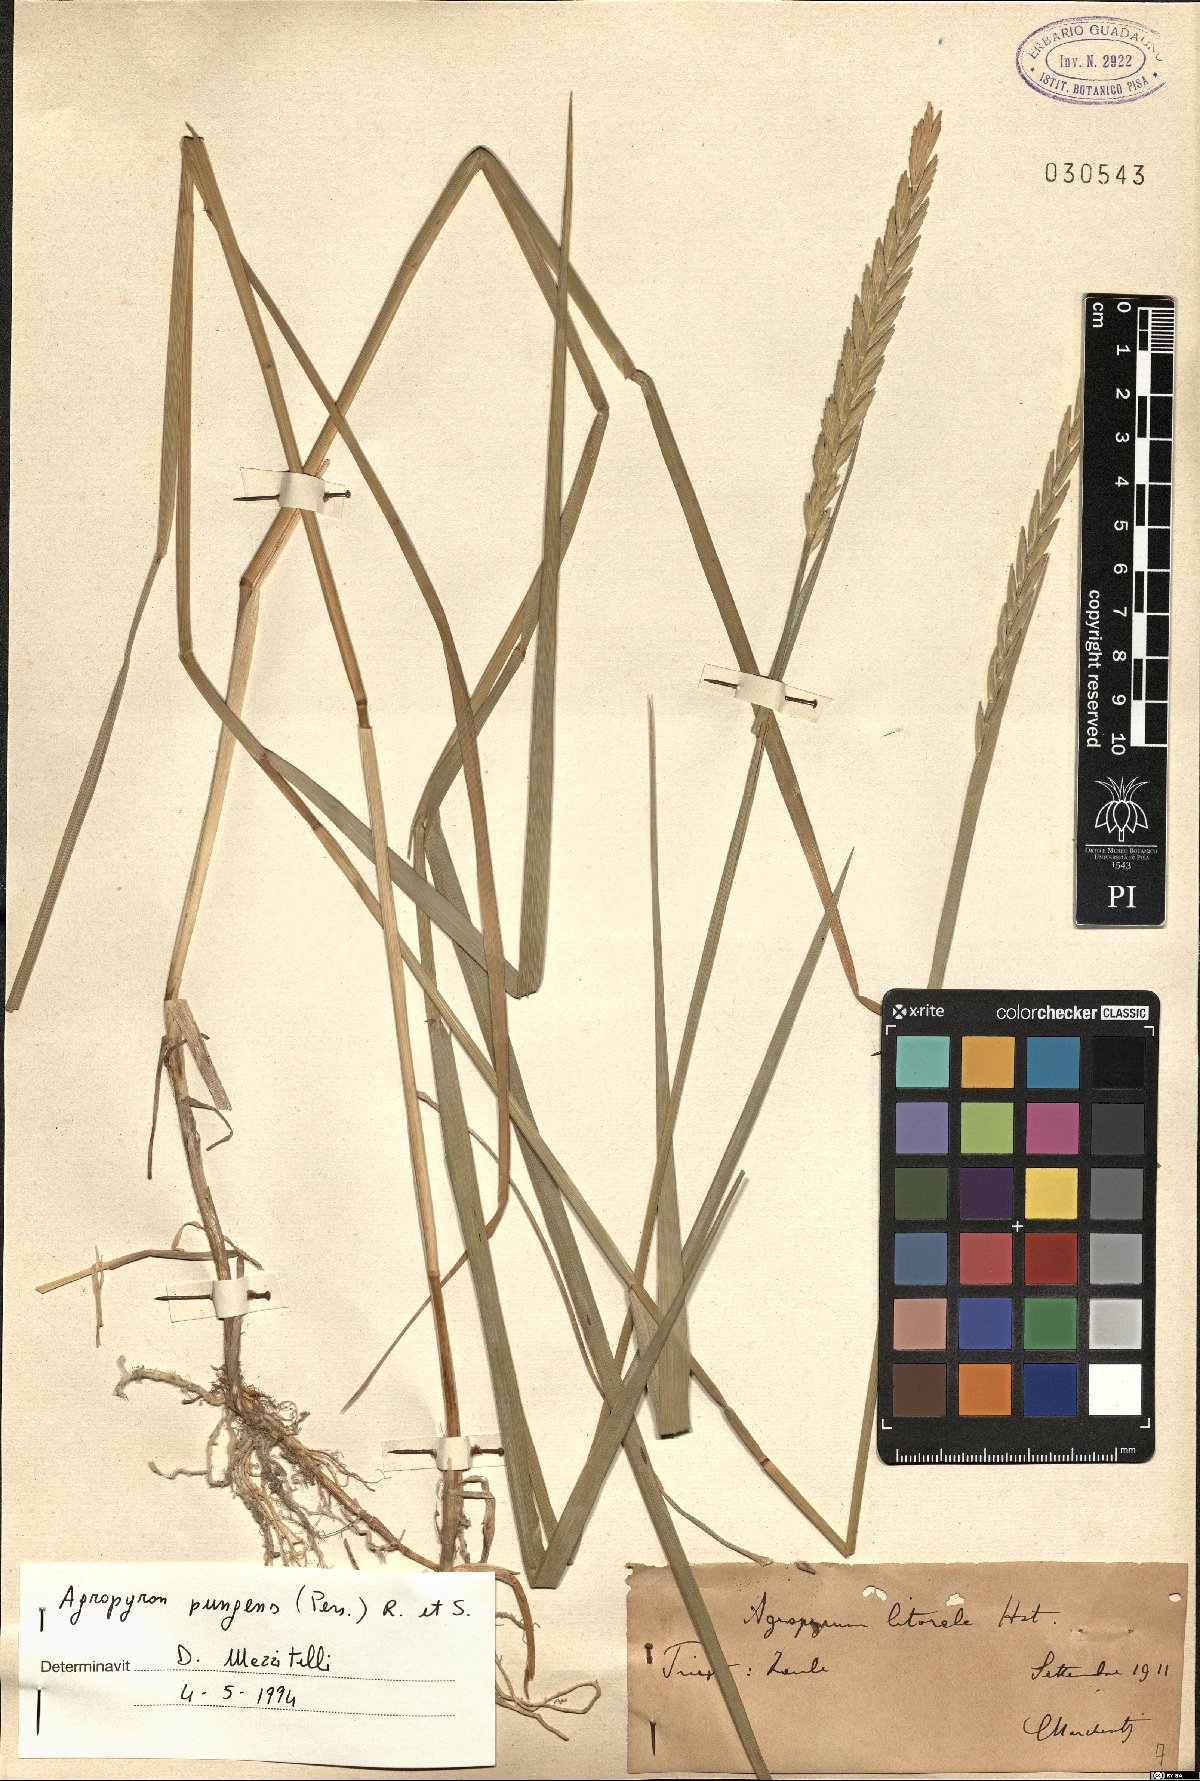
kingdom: Plantae
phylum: Tracheophyta
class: Liliopsida
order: Poales
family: Poaceae
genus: Elymus
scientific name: Elymus pungens
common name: Sea couch
